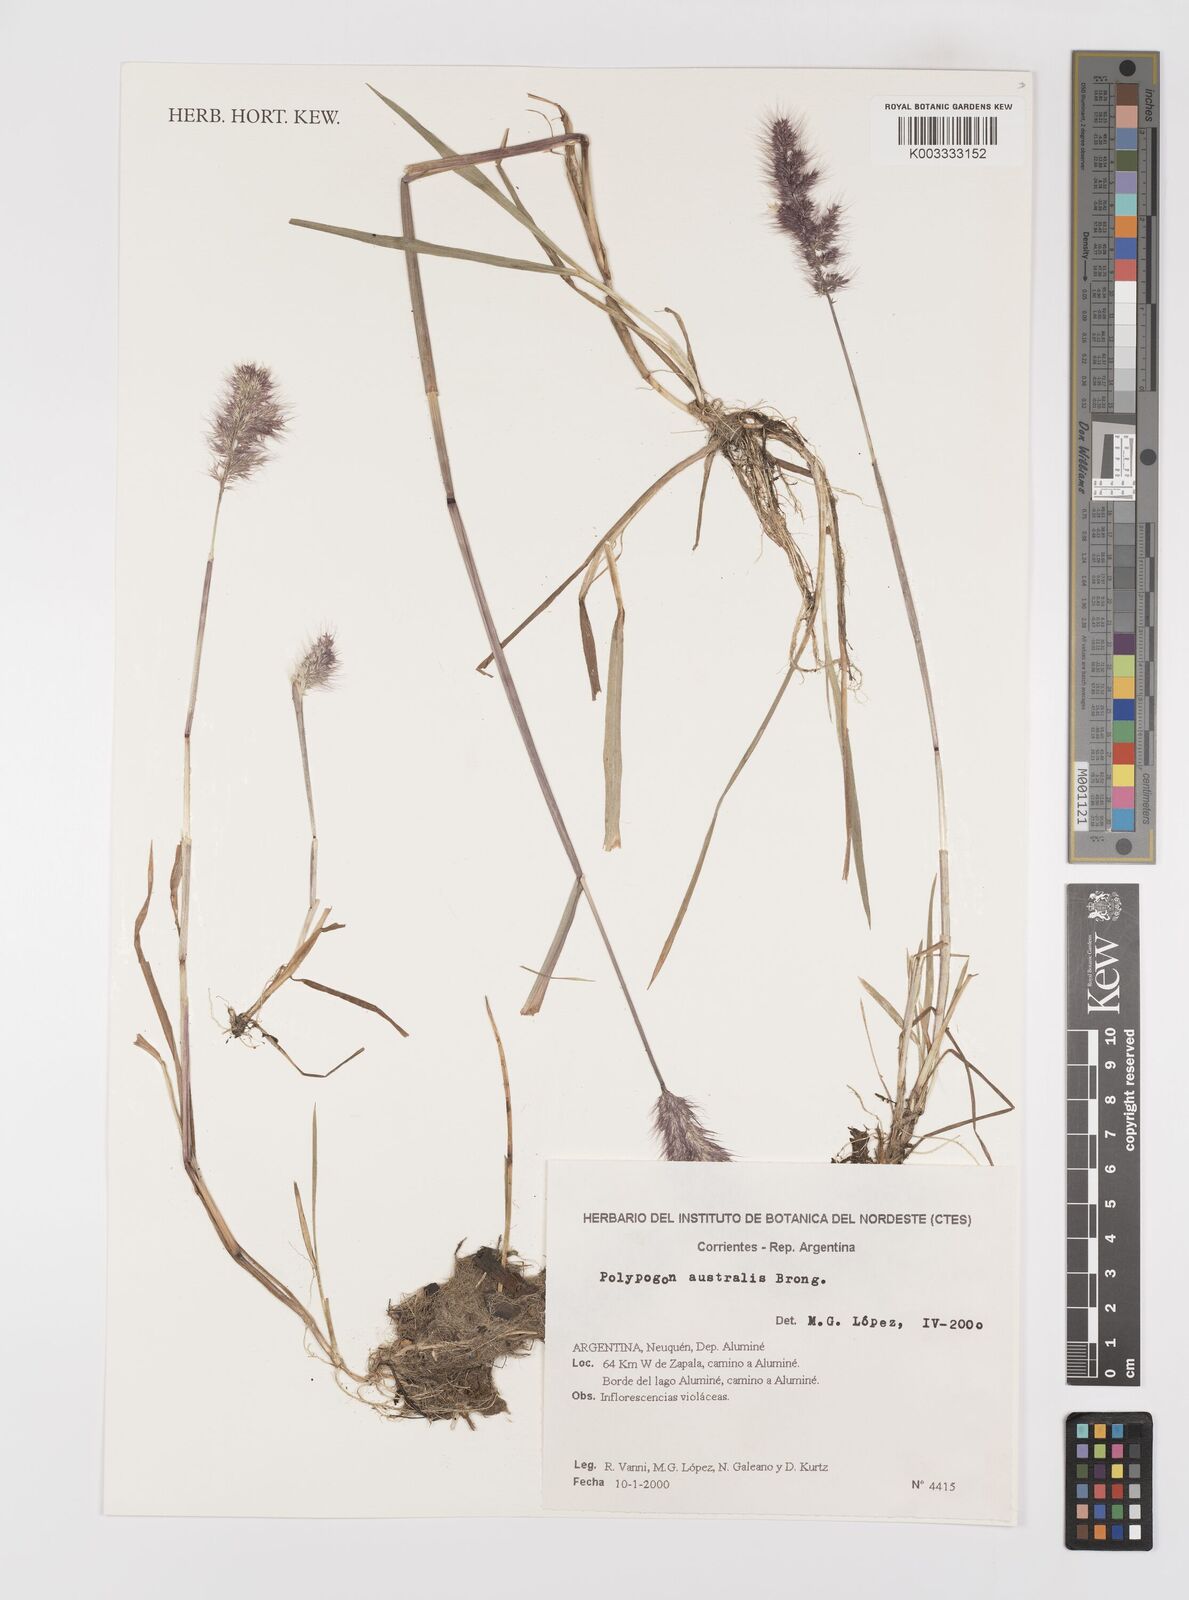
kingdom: Plantae
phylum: Tracheophyta
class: Liliopsida
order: Poales
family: Poaceae
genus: Polypogon
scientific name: Polypogon australis
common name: Chilean rabbitsfoot grass
